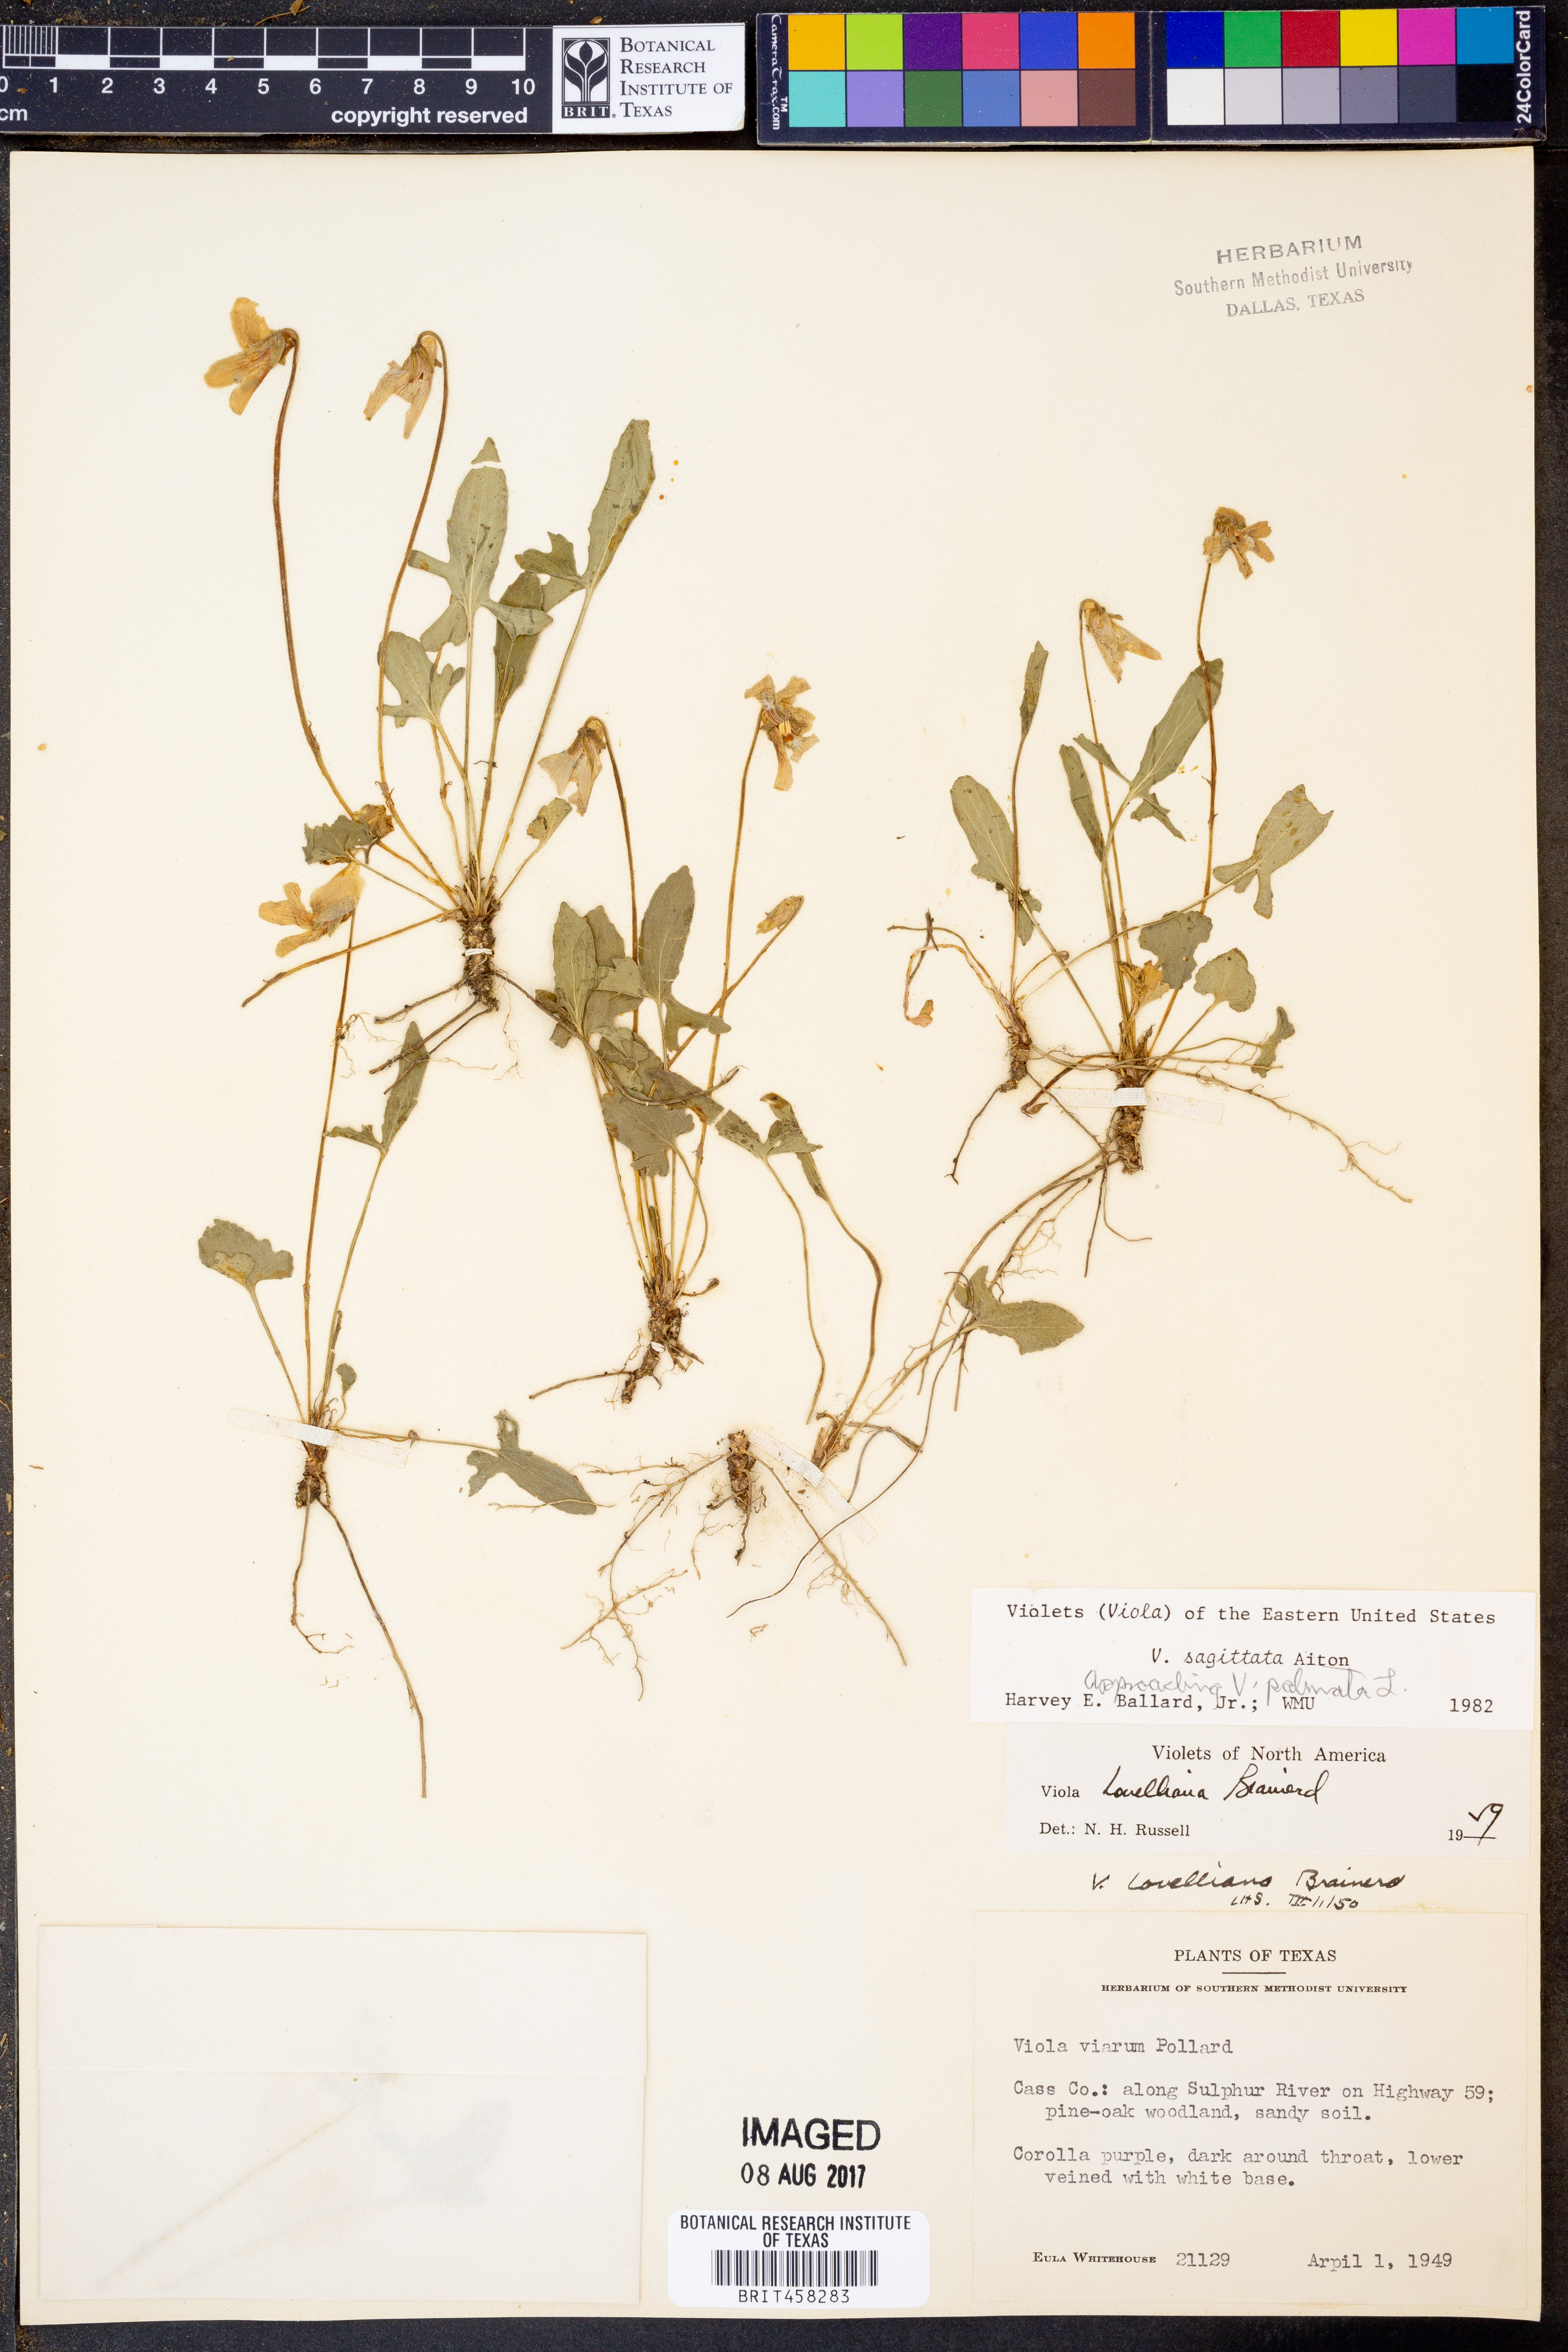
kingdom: Plantae
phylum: Tracheophyta
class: Magnoliopsida
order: Malpighiales
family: Violaceae
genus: Viola
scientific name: Viola sagittata
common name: Arrowhead violet
